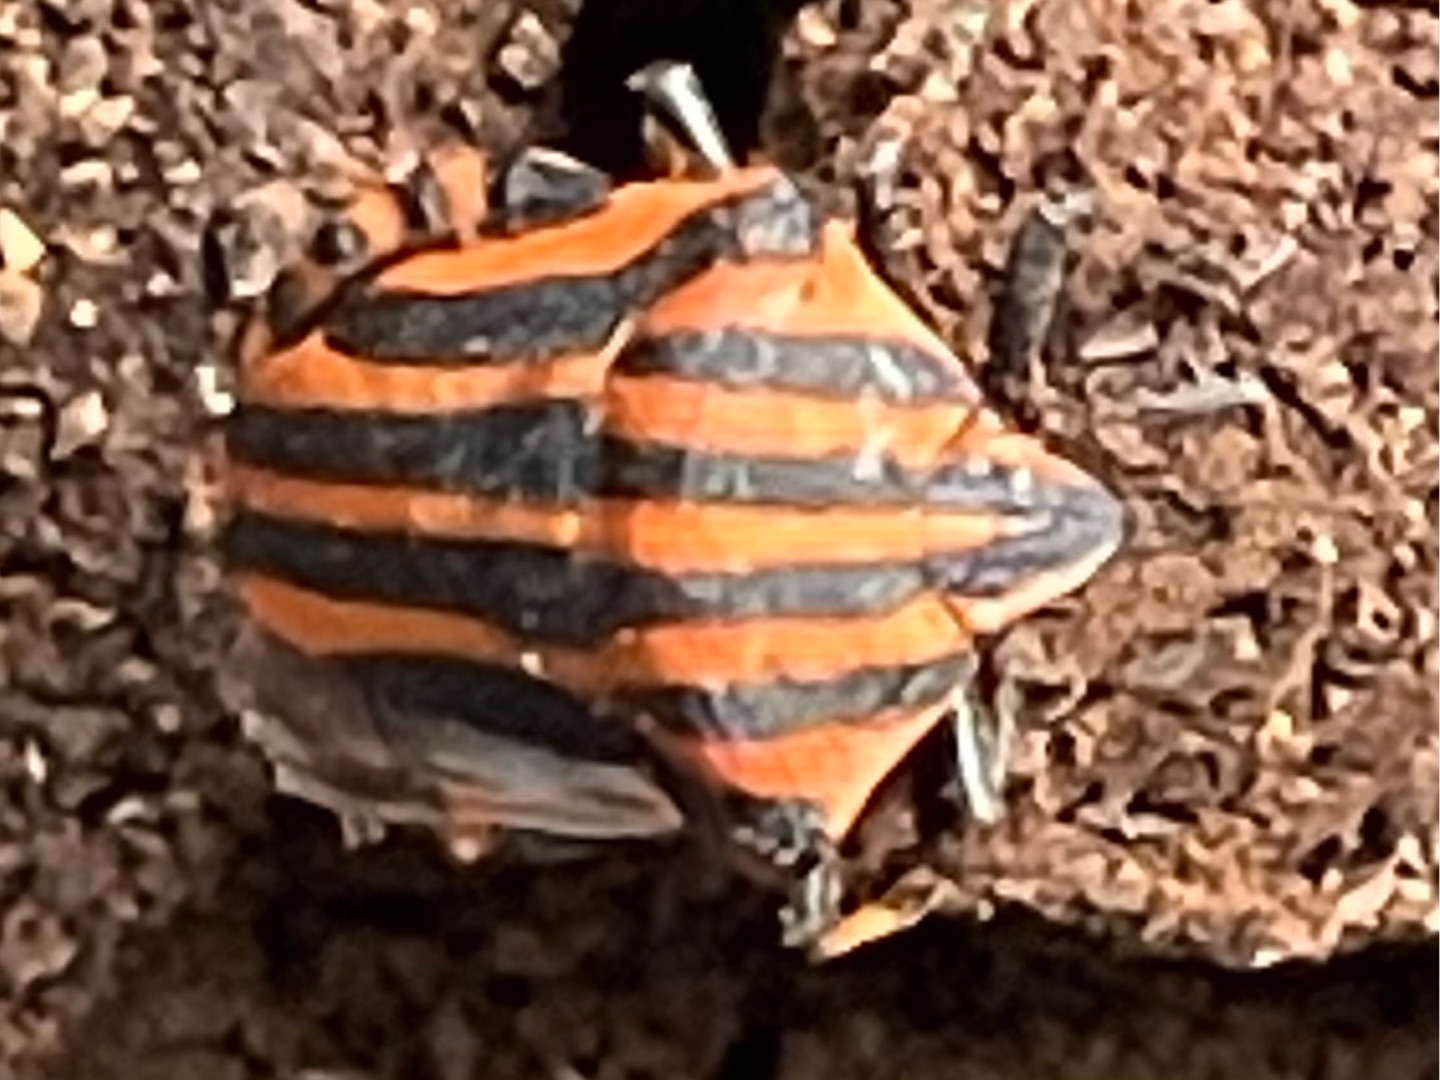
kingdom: Animalia
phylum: Arthropoda
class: Insecta
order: Hemiptera
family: Pentatomidae
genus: Graphosoma
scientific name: Graphosoma italicum
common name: Stribetæge
